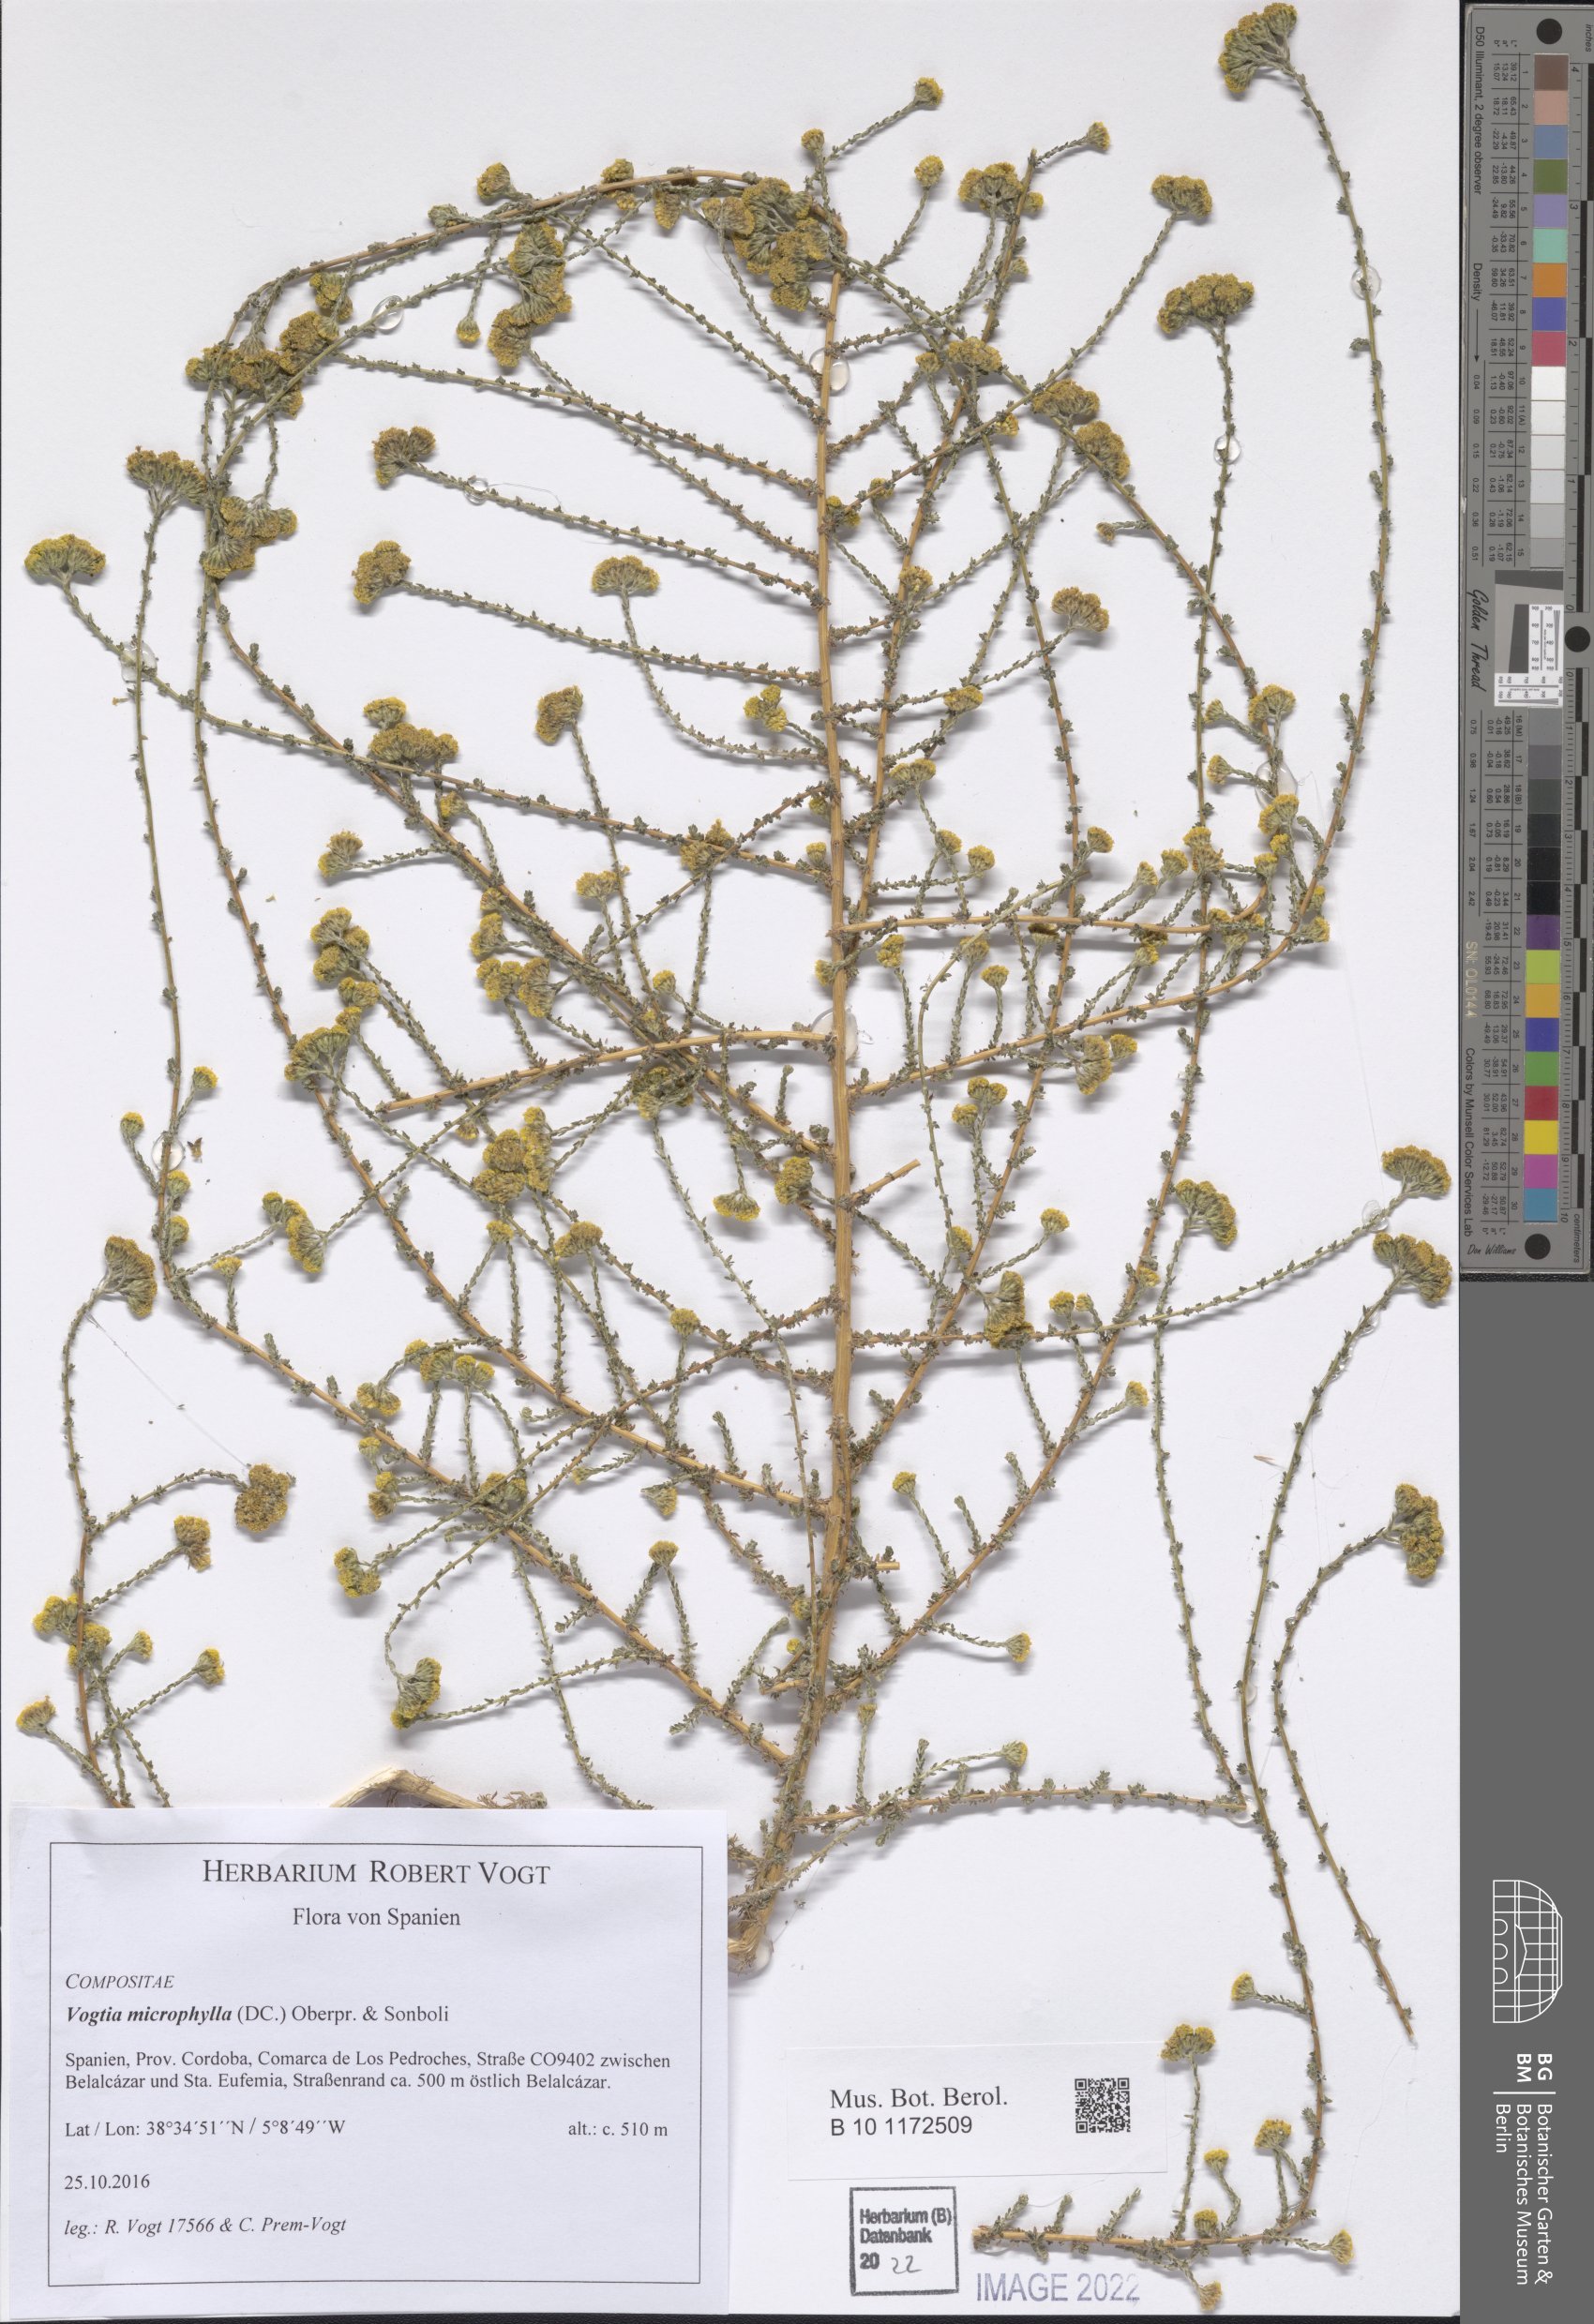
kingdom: Plantae
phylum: Tracheophyta
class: Magnoliopsida
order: Asterales
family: Asteraceae
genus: Vogtia
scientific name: Vogtia microphylla
